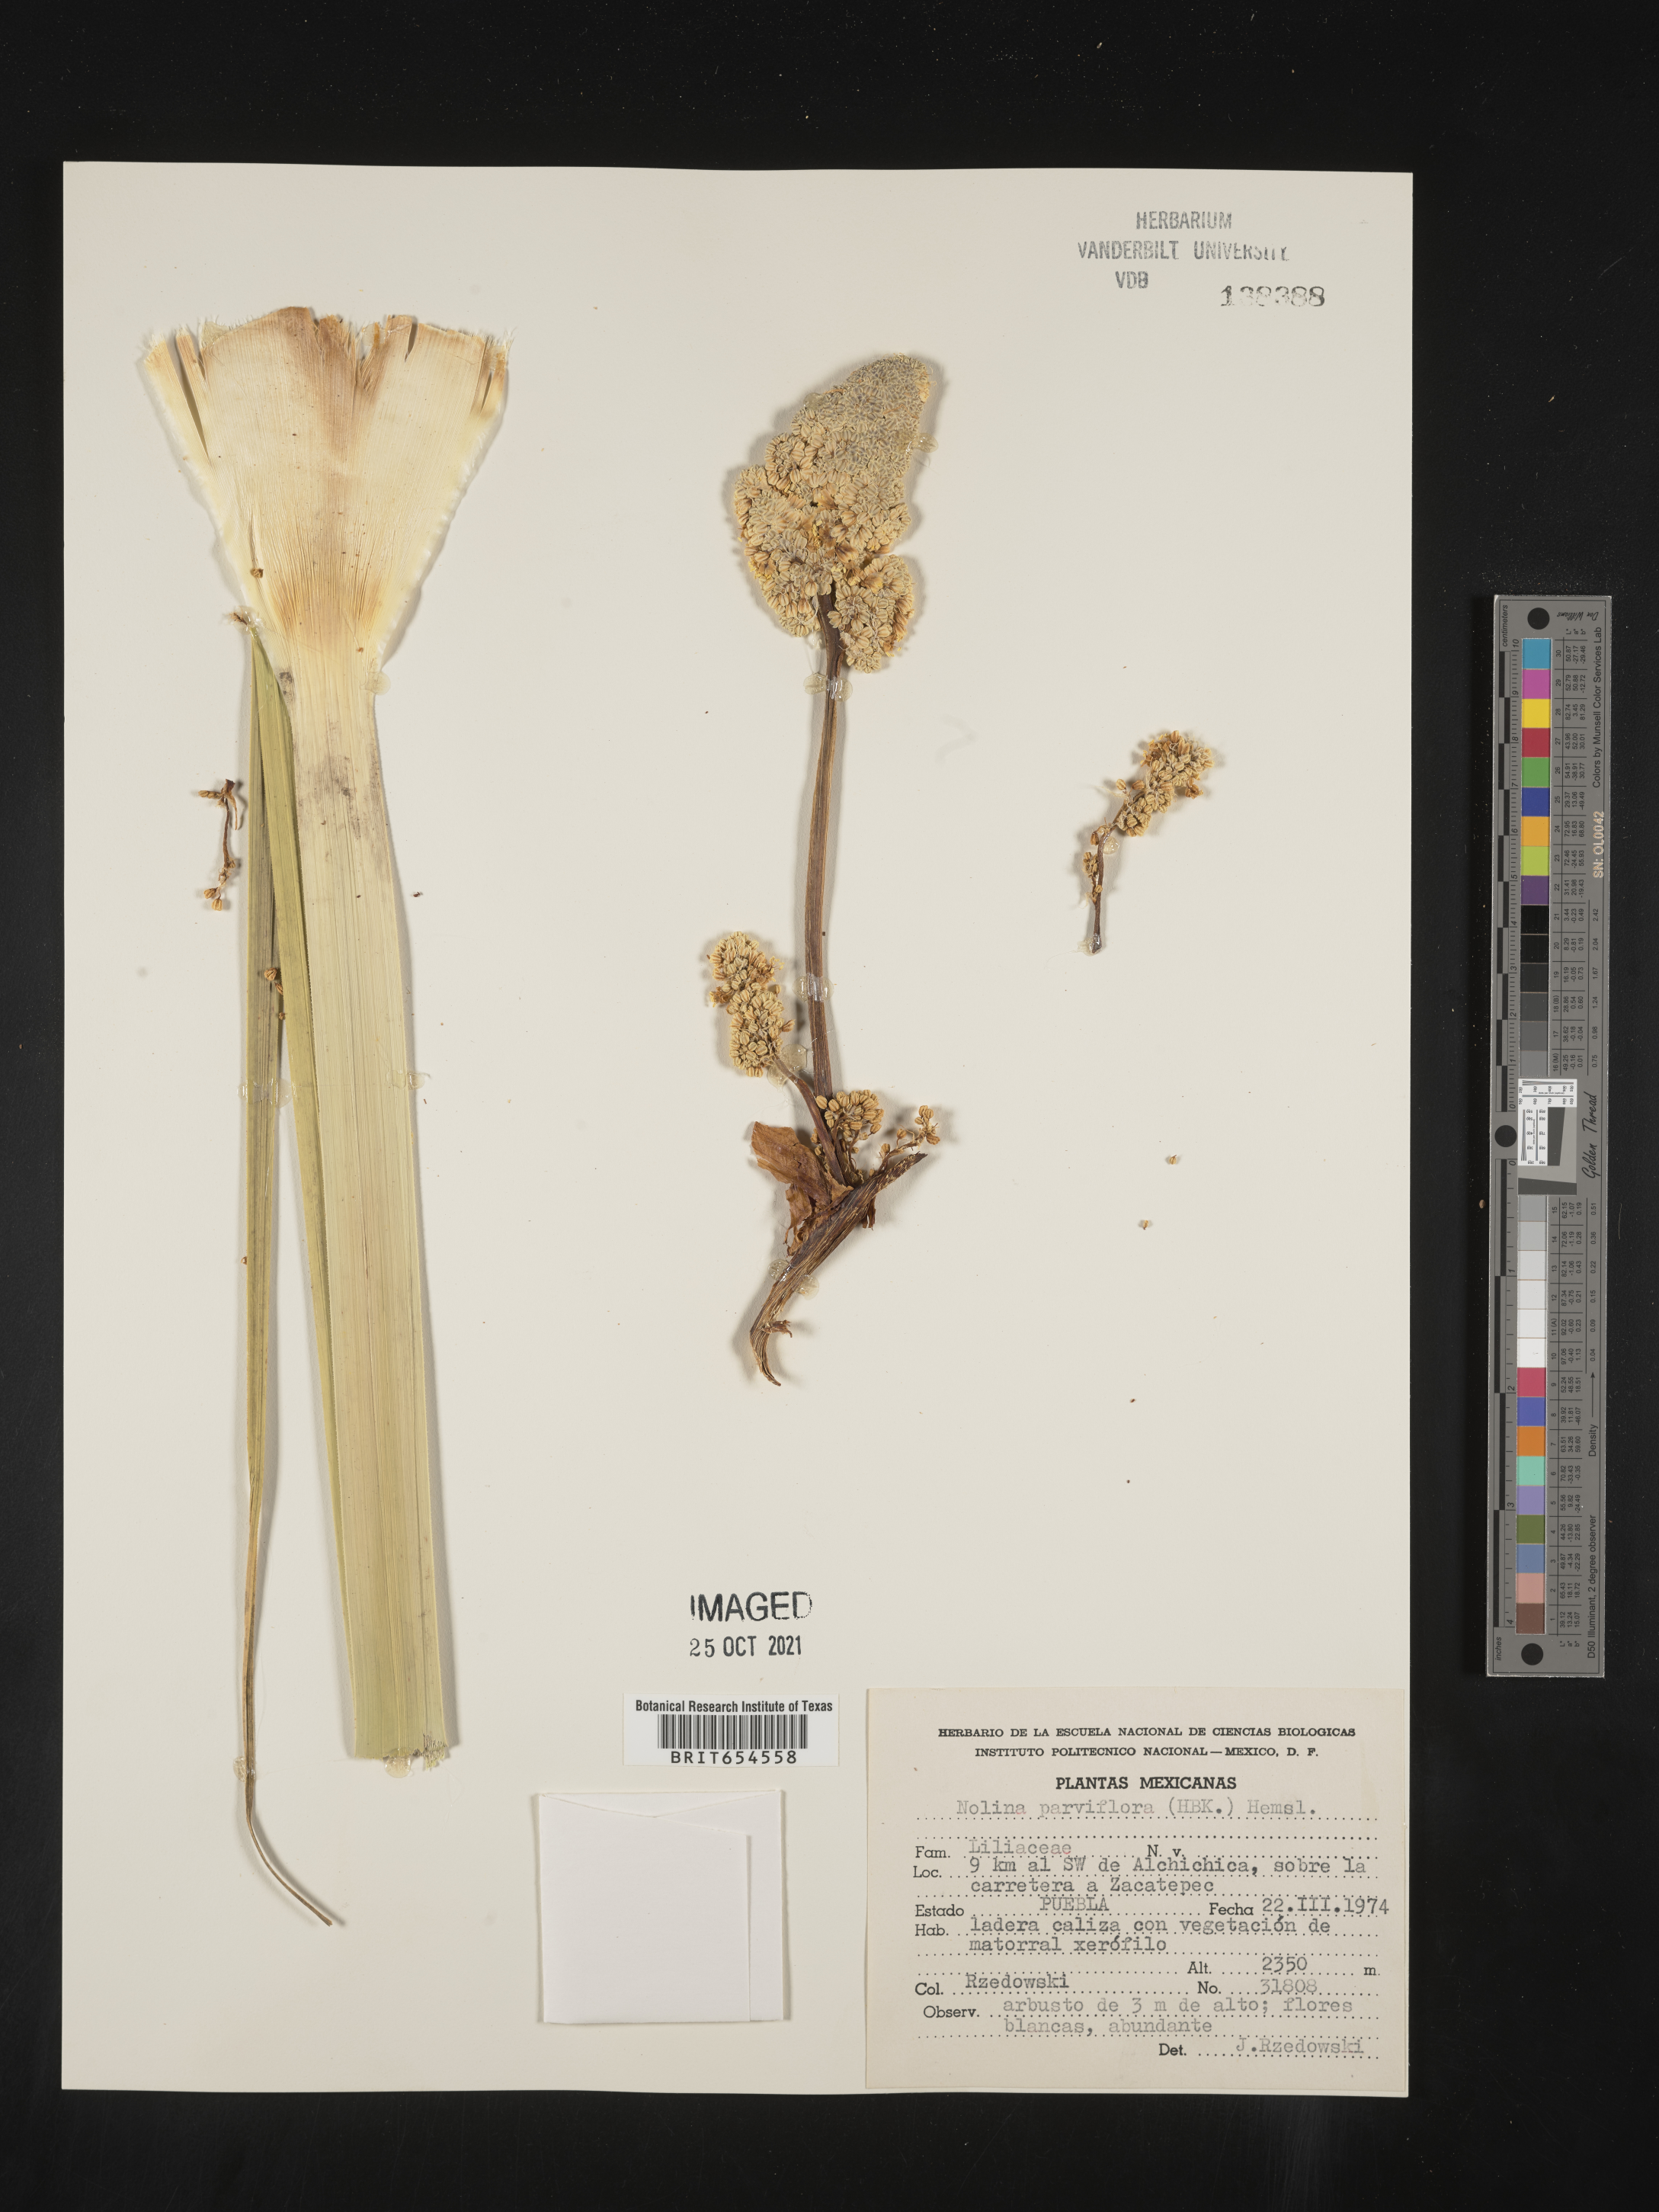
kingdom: Plantae
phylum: Tracheophyta
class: Liliopsida
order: Asparagales
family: Asparagaceae
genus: Nolina
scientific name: Nolina
